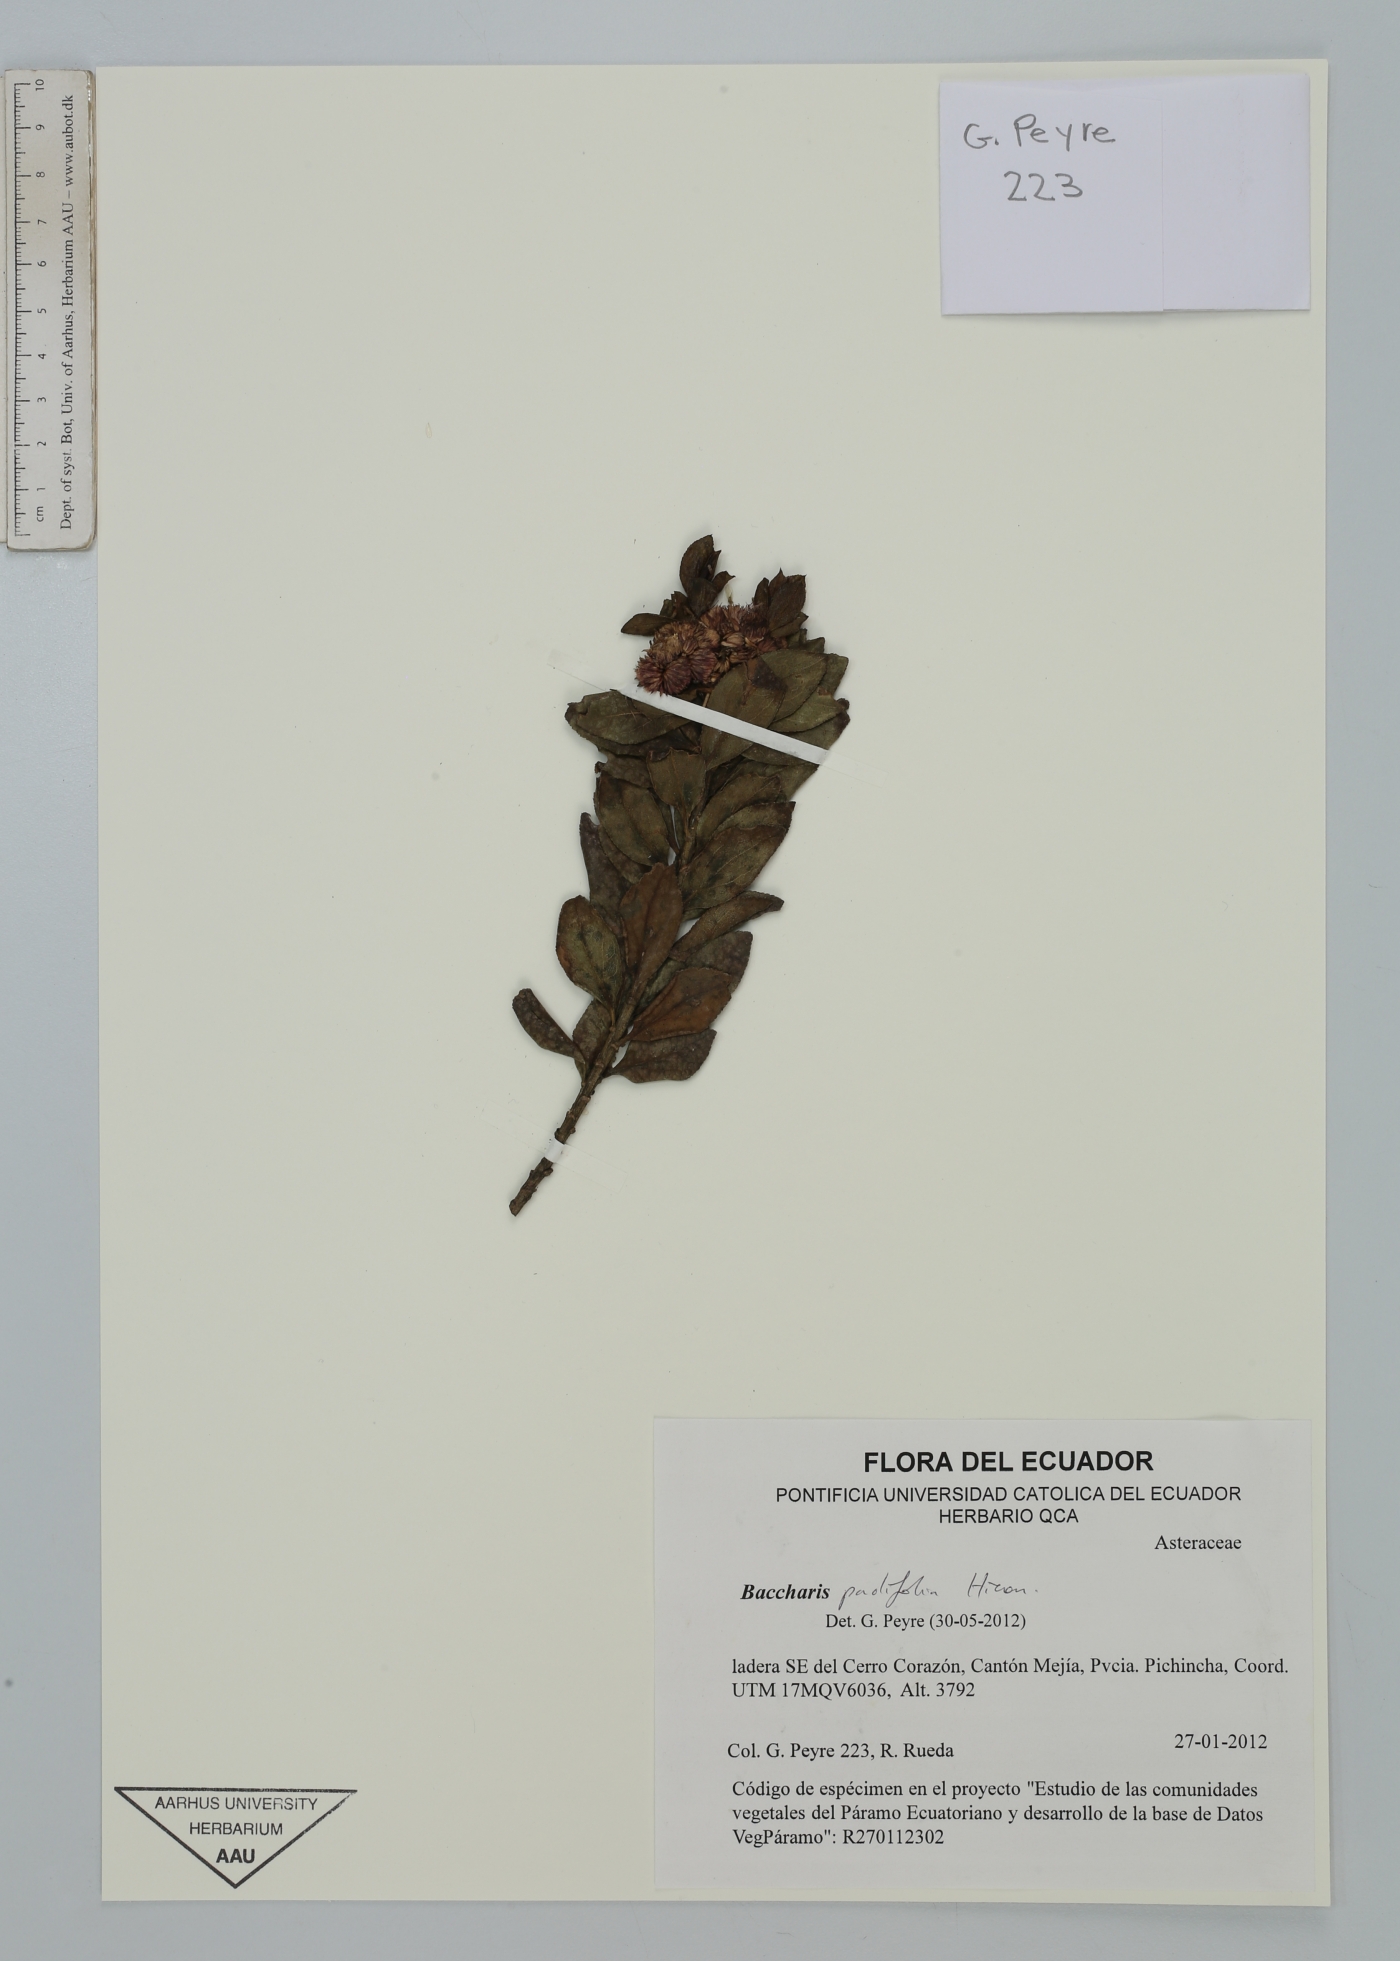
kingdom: Plantae
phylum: Tracheophyta
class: Magnoliopsida
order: Asterales
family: Asteraceae
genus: Baccharis
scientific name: Baccharis padifolia
